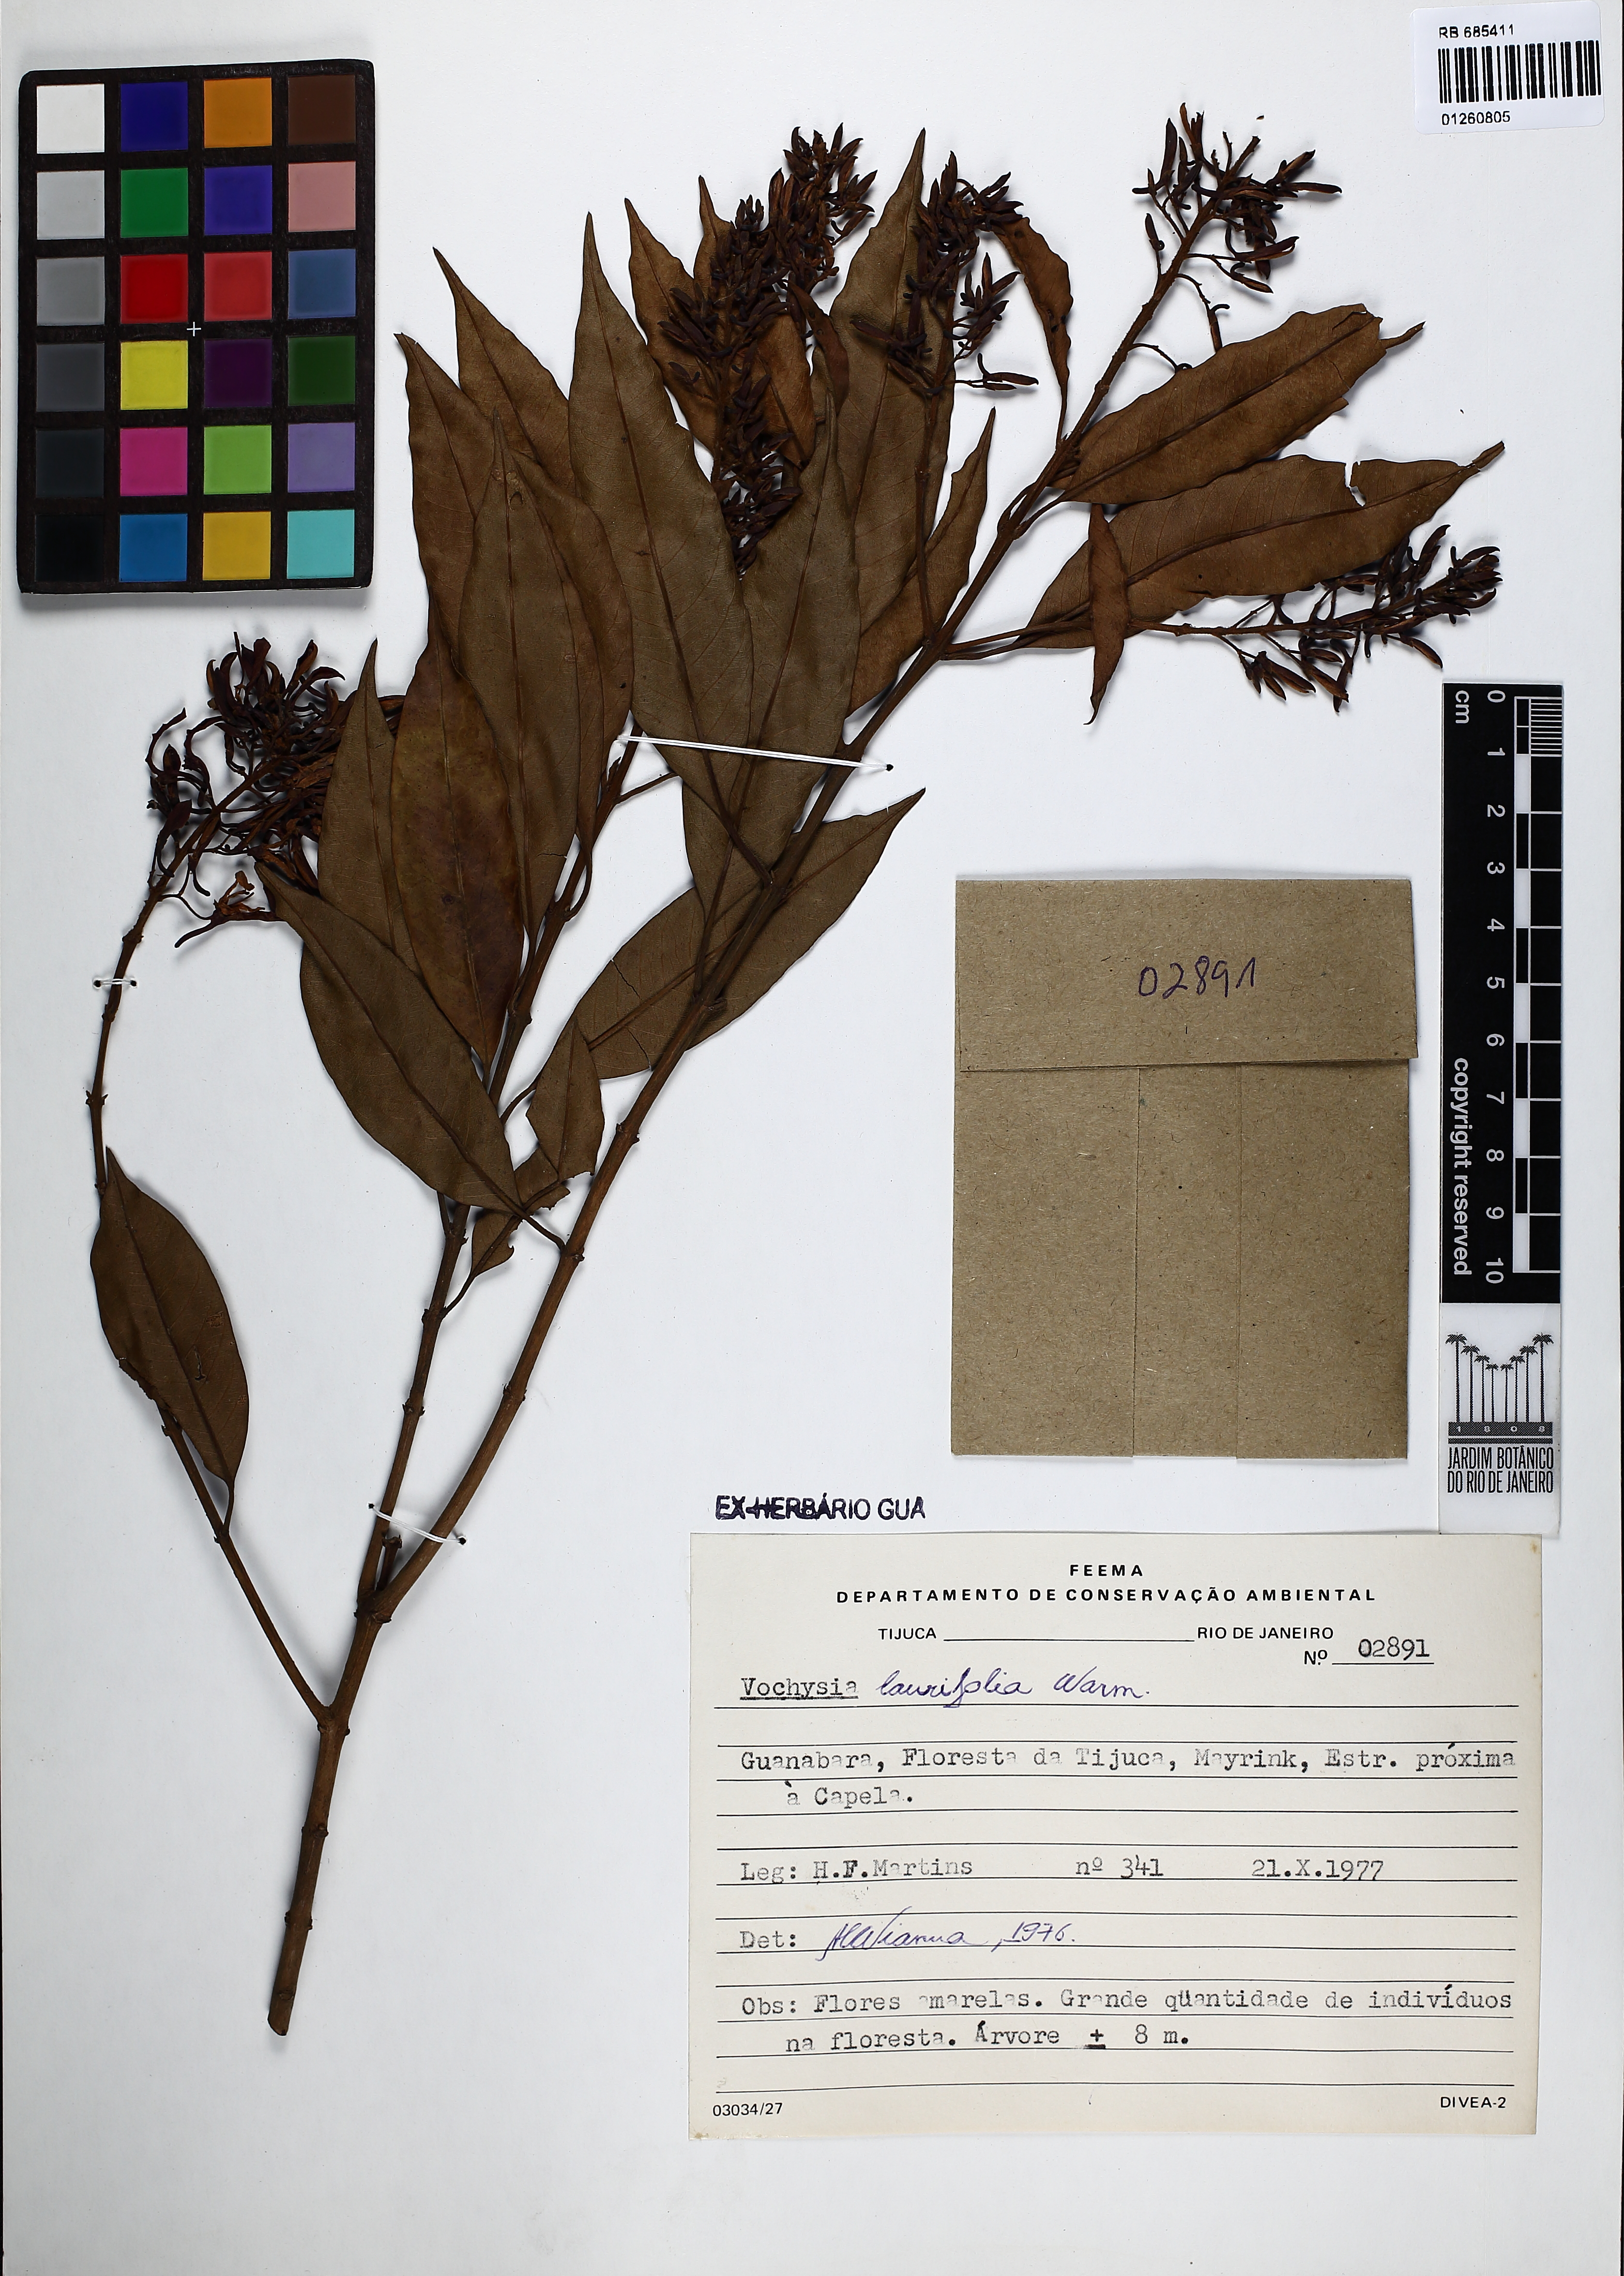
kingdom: Plantae
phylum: Tracheophyta
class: Magnoliopsida
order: Myrtales
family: Vochysiaceae
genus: Vochysia
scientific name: Vochysia laurifolia
